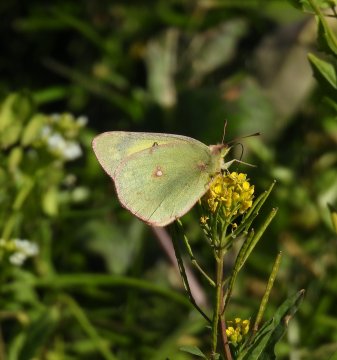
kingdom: Animalia
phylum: Arthropoda
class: Insecta
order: Lepidoptera
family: Pieridae
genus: Colias
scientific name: Colias philodice
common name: Clouded Sulphur
